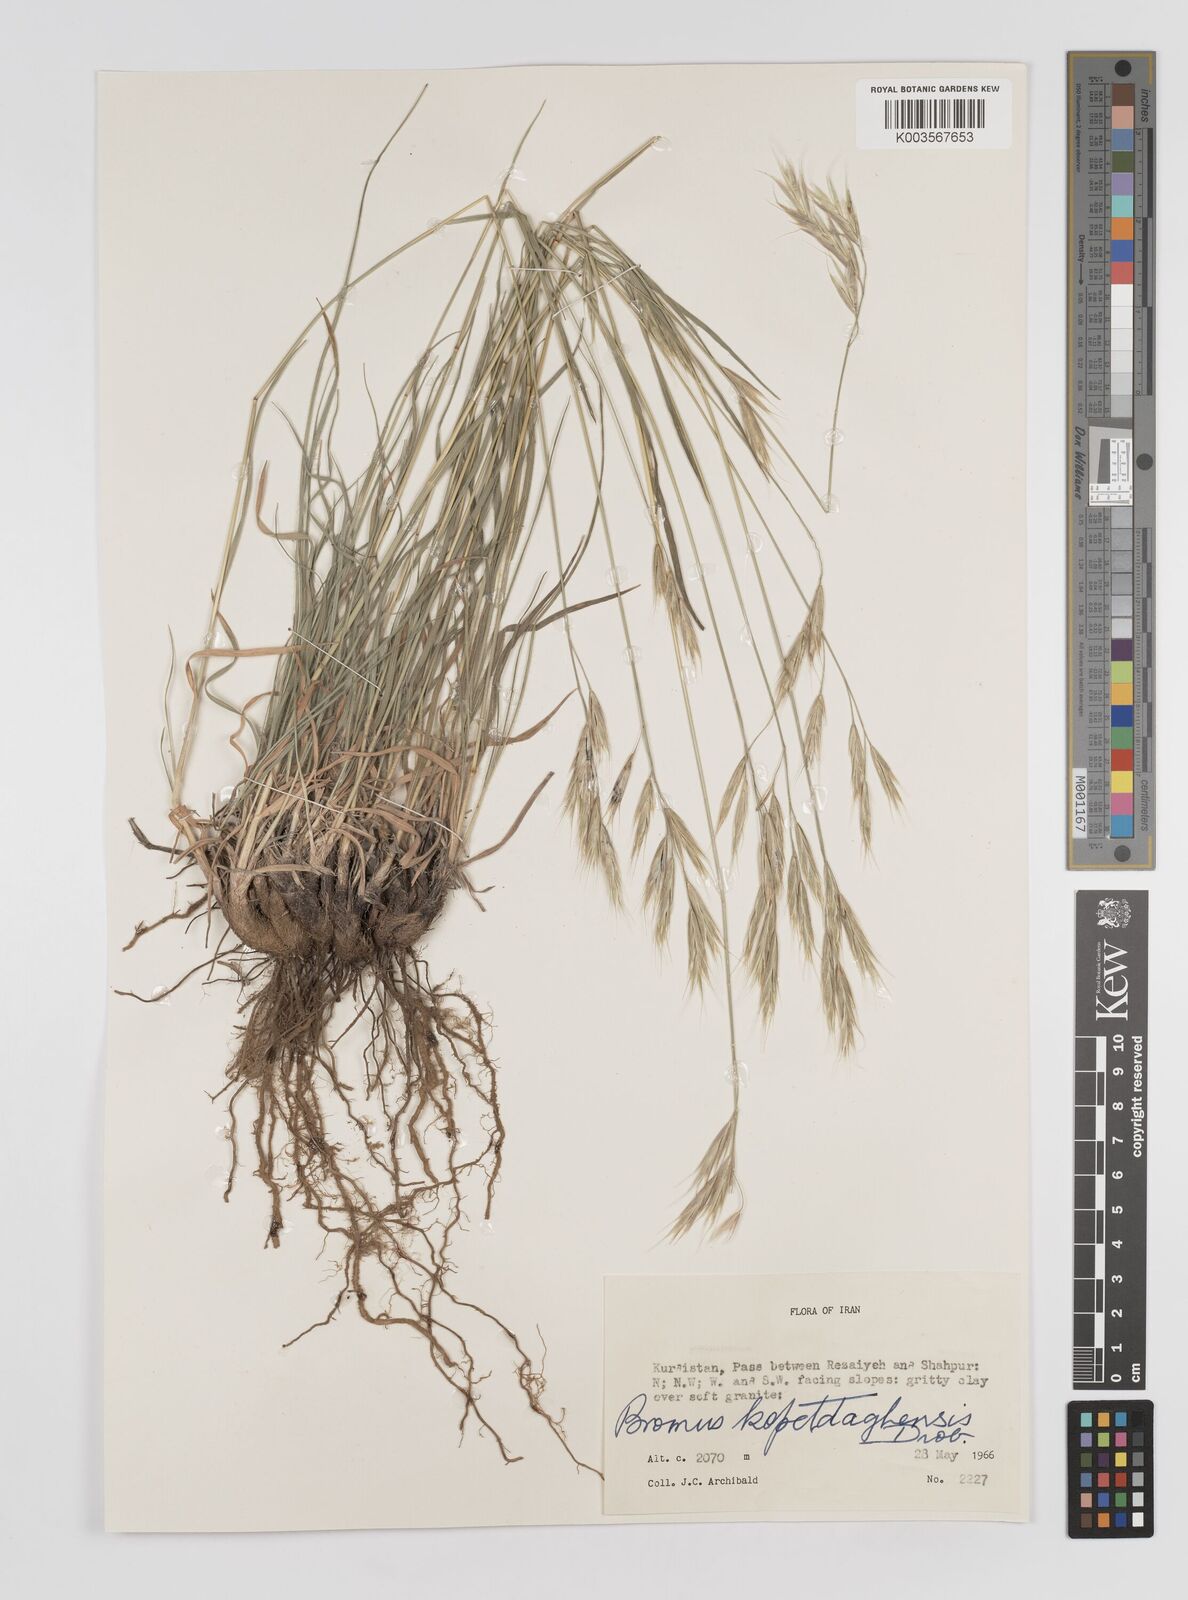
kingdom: Plantae
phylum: Tracheophyta
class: Liliopsida
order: Poales
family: Poaceae
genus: Bromus
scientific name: Bromus kopetdagensis
